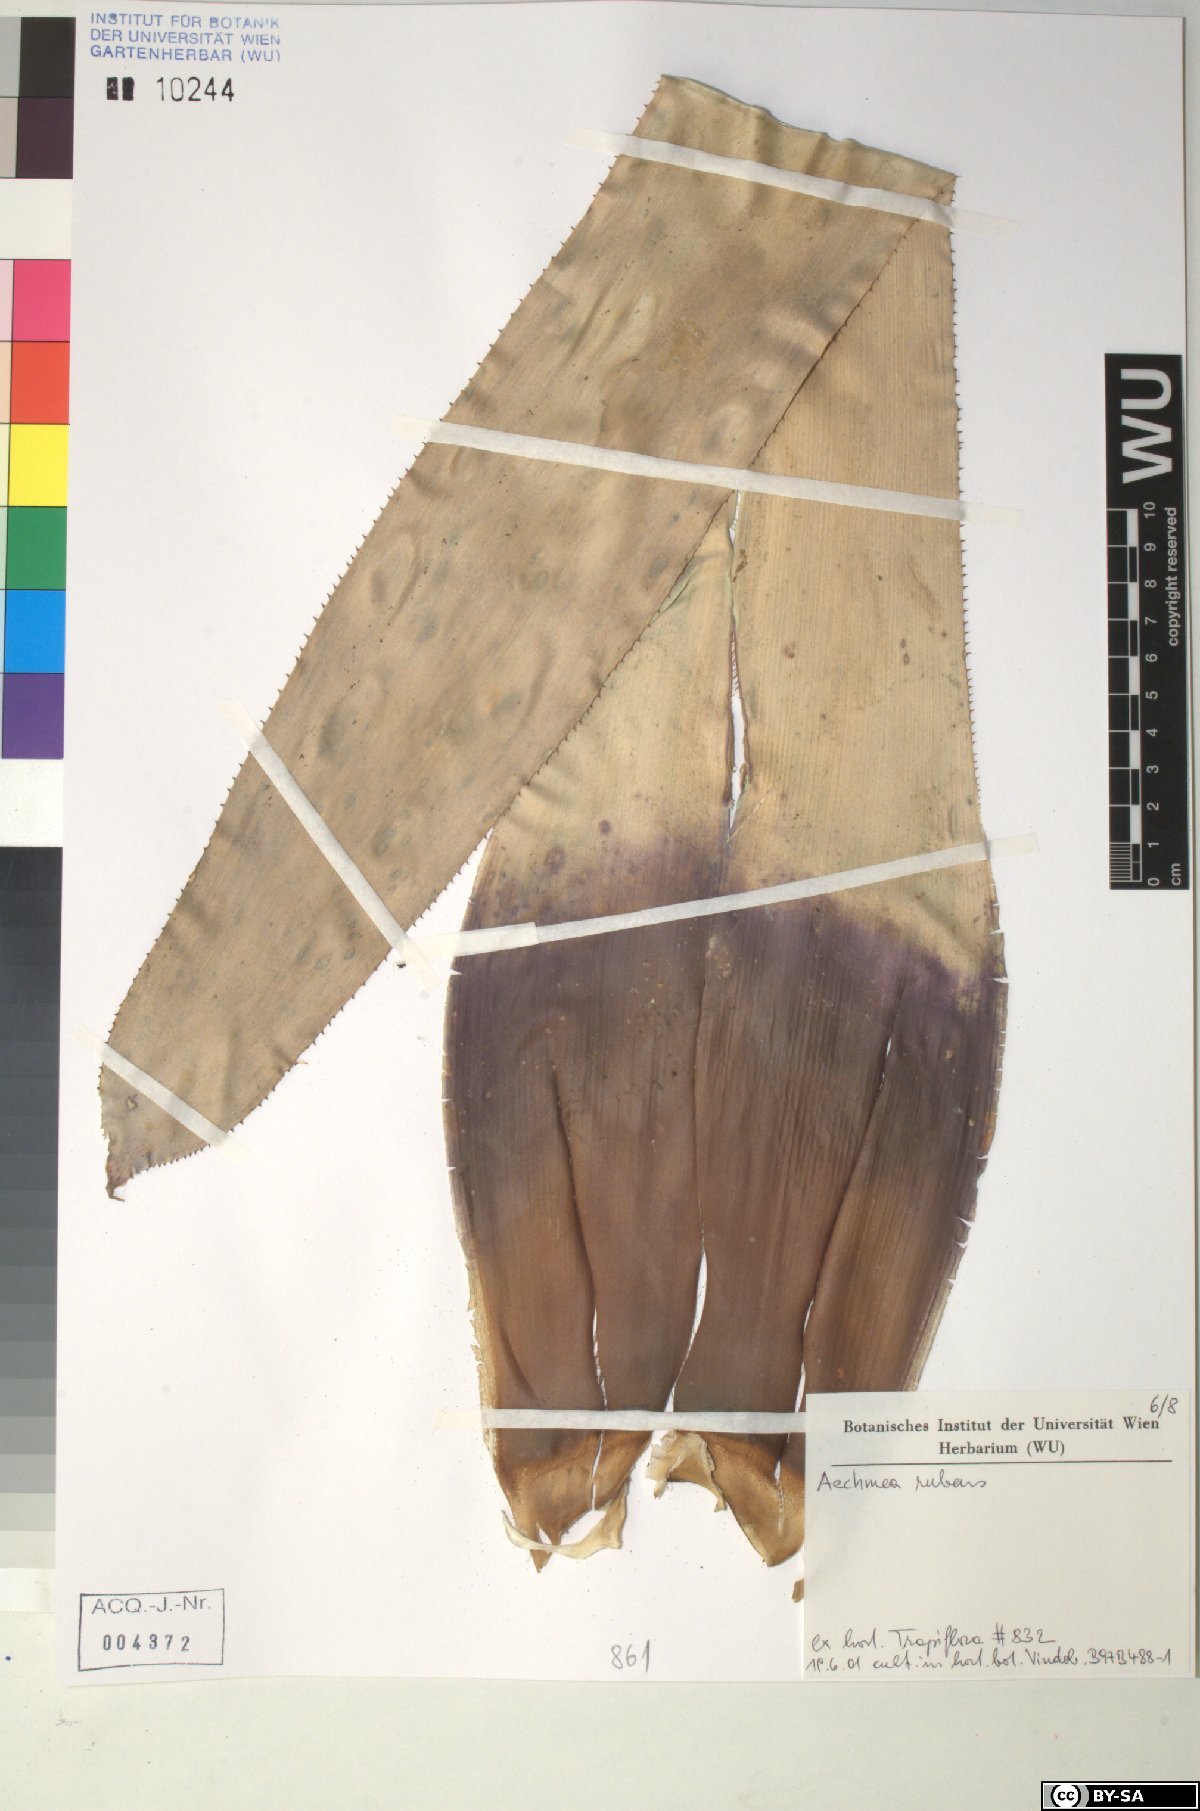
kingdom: Plantae
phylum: Tracheophyta
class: Liliopsida
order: Poales
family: Bromeliaceae
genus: Aechmea
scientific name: Aechmea rubens
